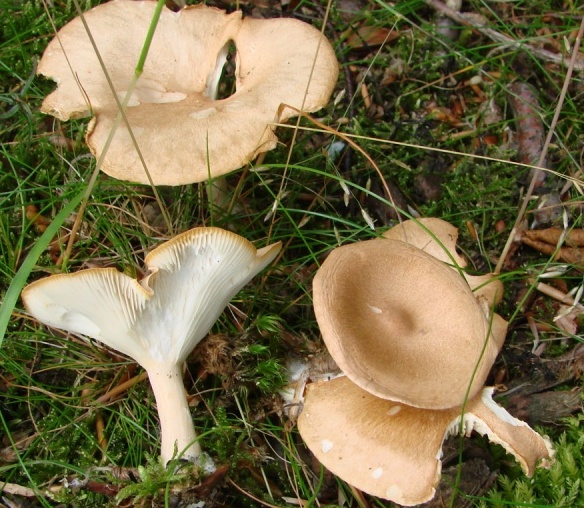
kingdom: Fungi
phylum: Basidiomycota
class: Agaricomycetes
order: Agaricales
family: Tricholomataceae
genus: Infundibulicybe
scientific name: Infundibulicybe gibba
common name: almindelig tragthat
